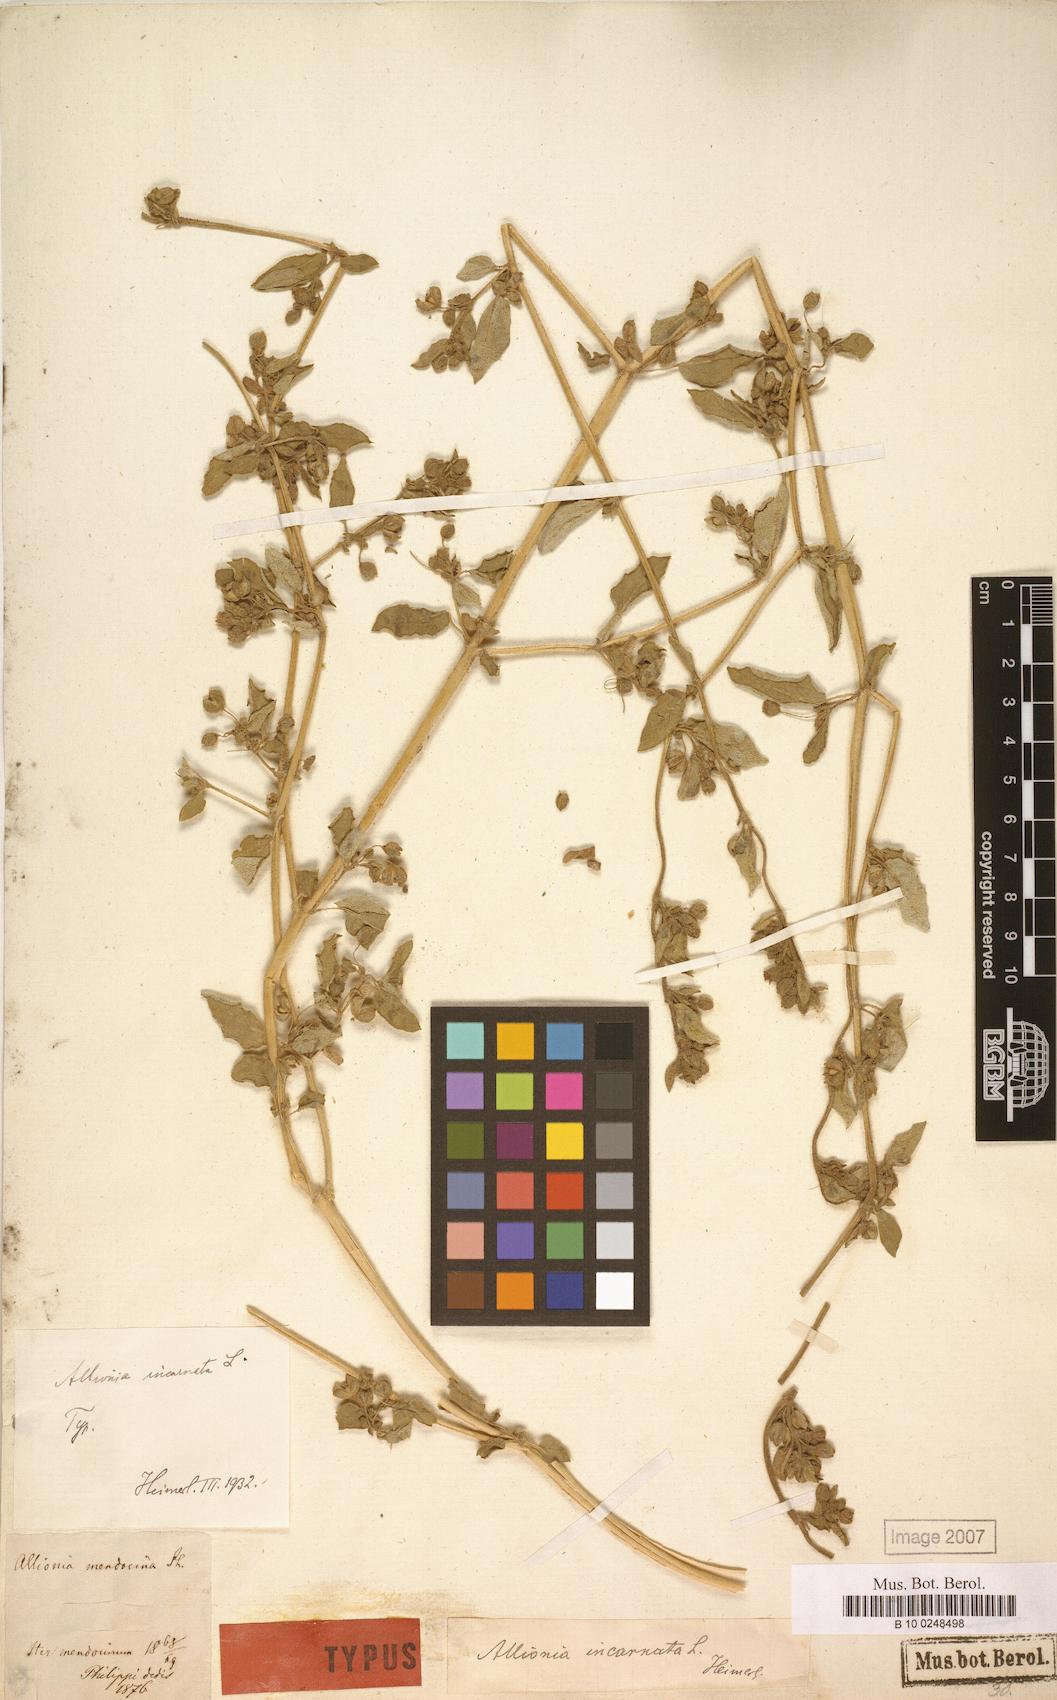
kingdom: Plantae
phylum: Tracheophyta
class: Magnoliopsida
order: Caryophyllales
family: Nyctaginaceae
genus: Allionia
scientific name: Allionia incarnata
